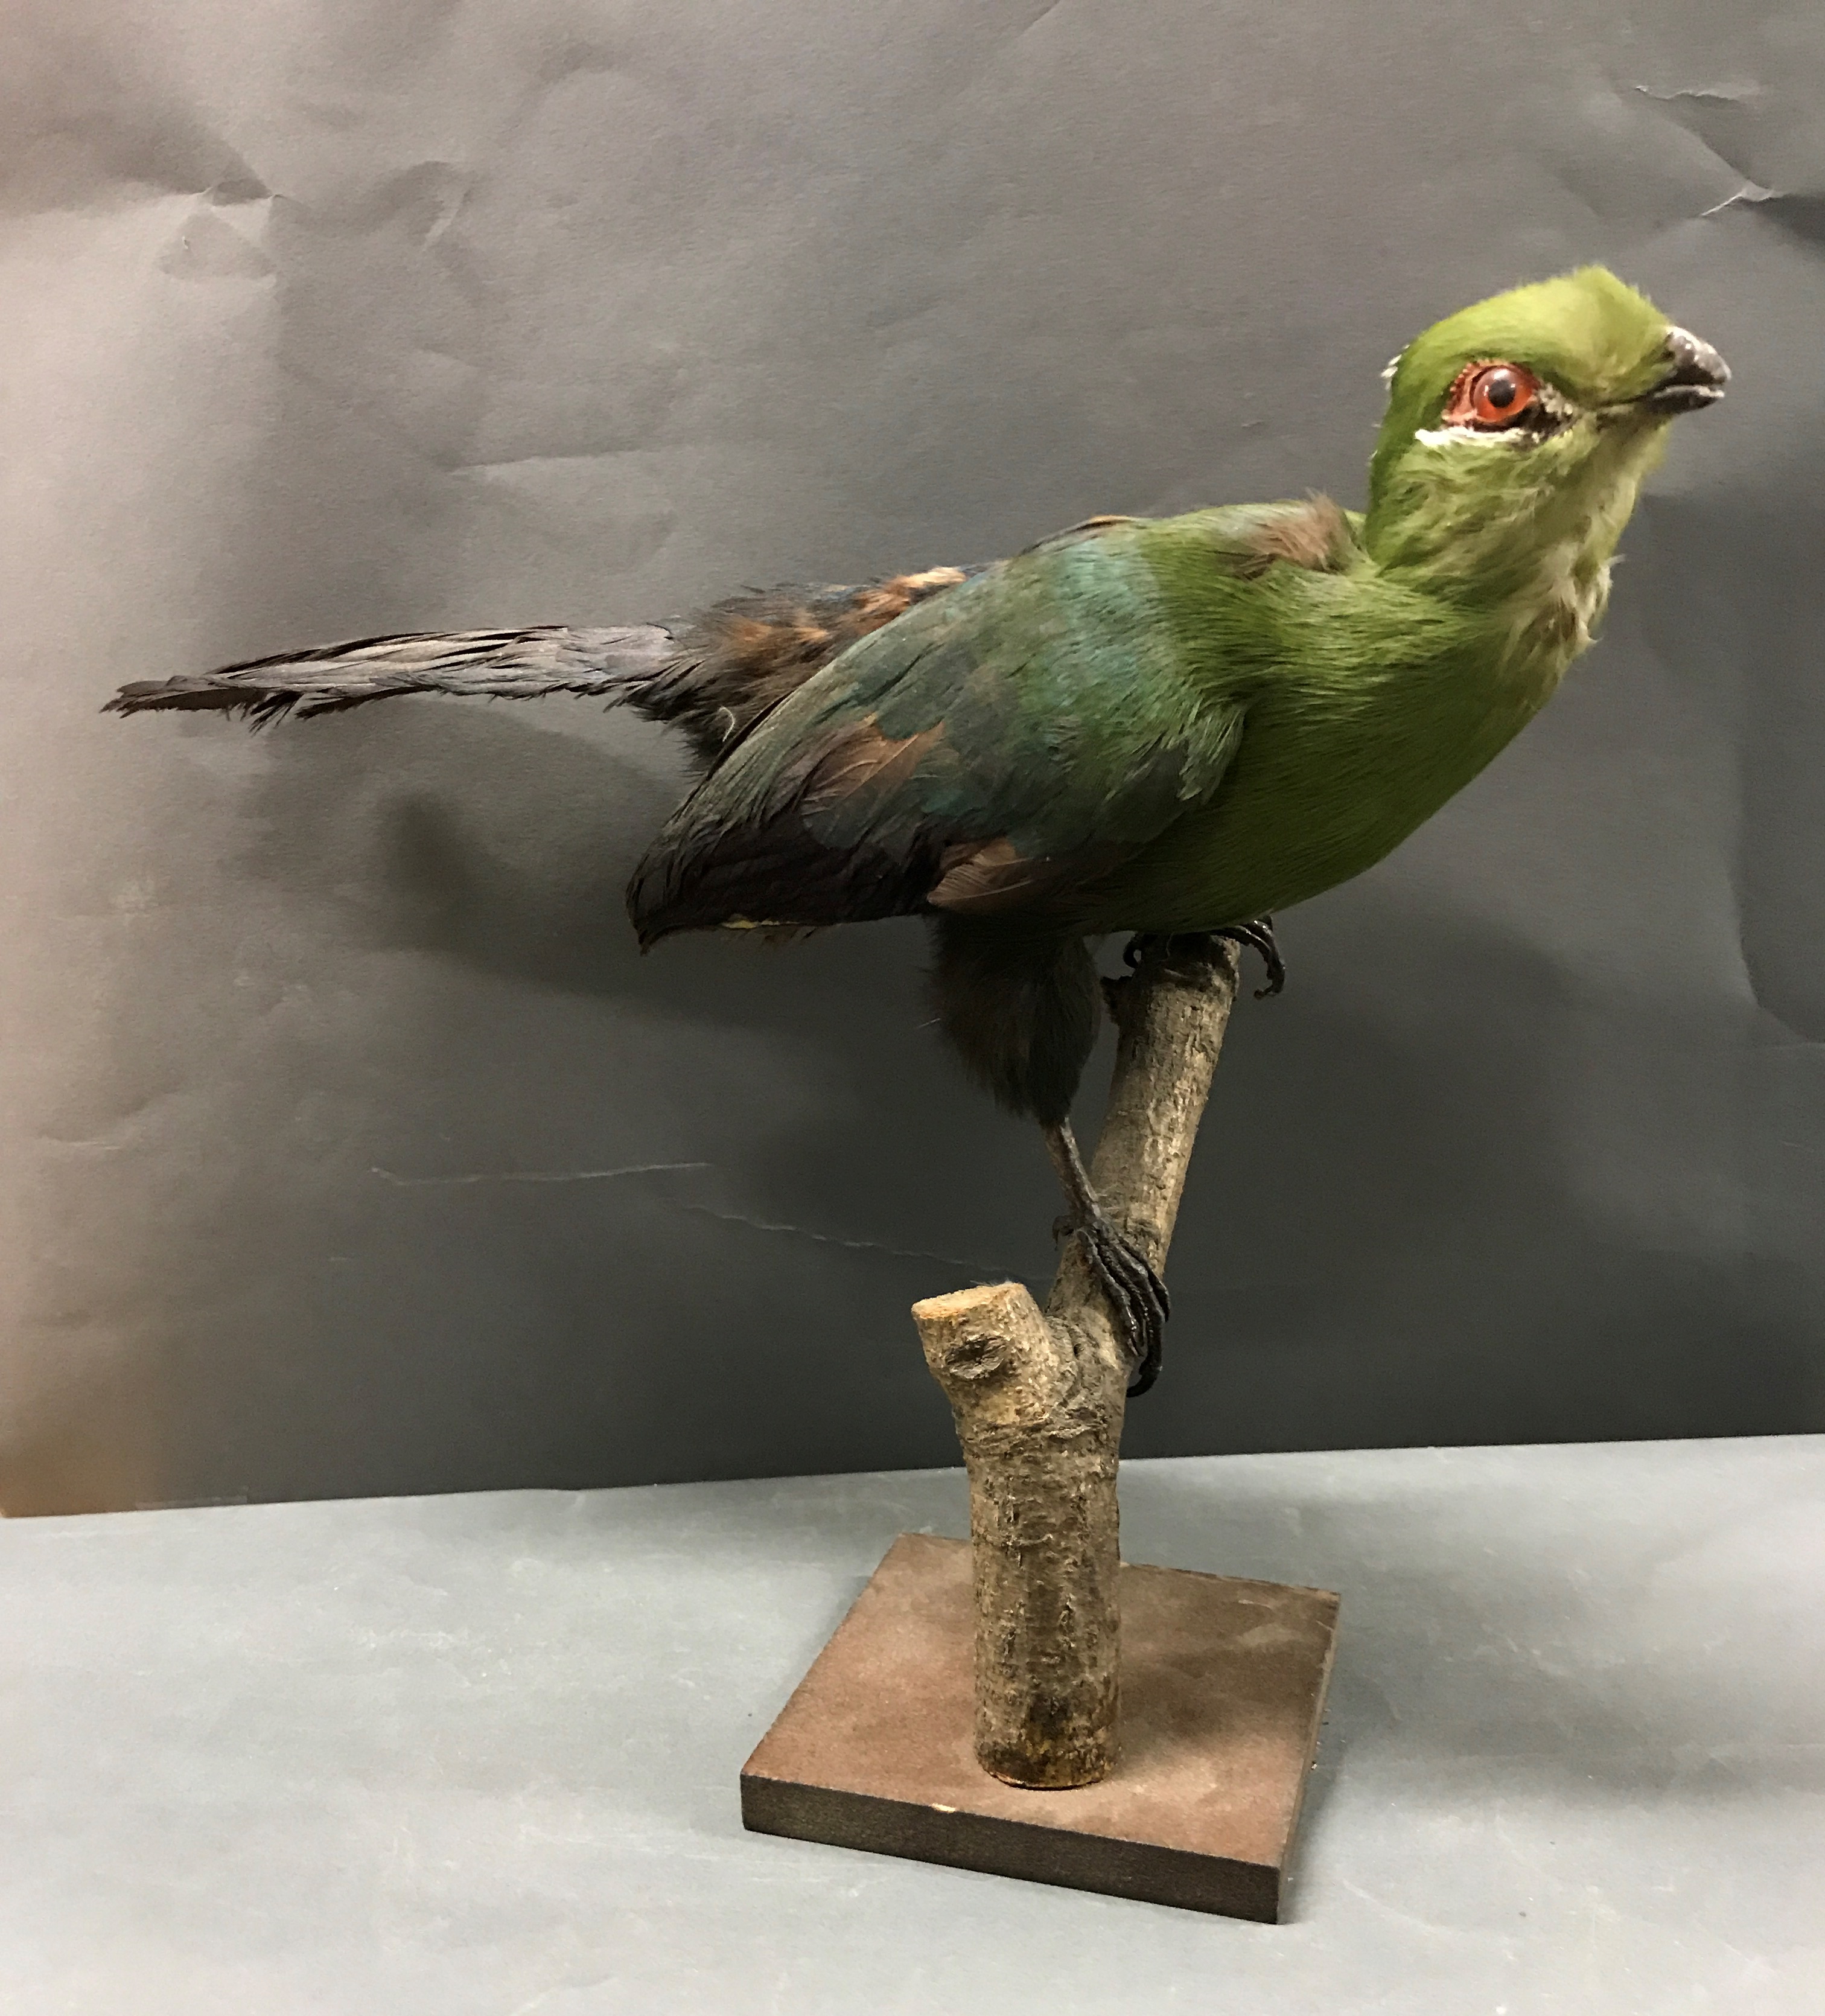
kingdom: Animalia
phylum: Chordata
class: Aves
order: Musophagiformes
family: Musophagidae
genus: Tauraco
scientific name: Tauraco livingstonii
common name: Livingstone's turaco
